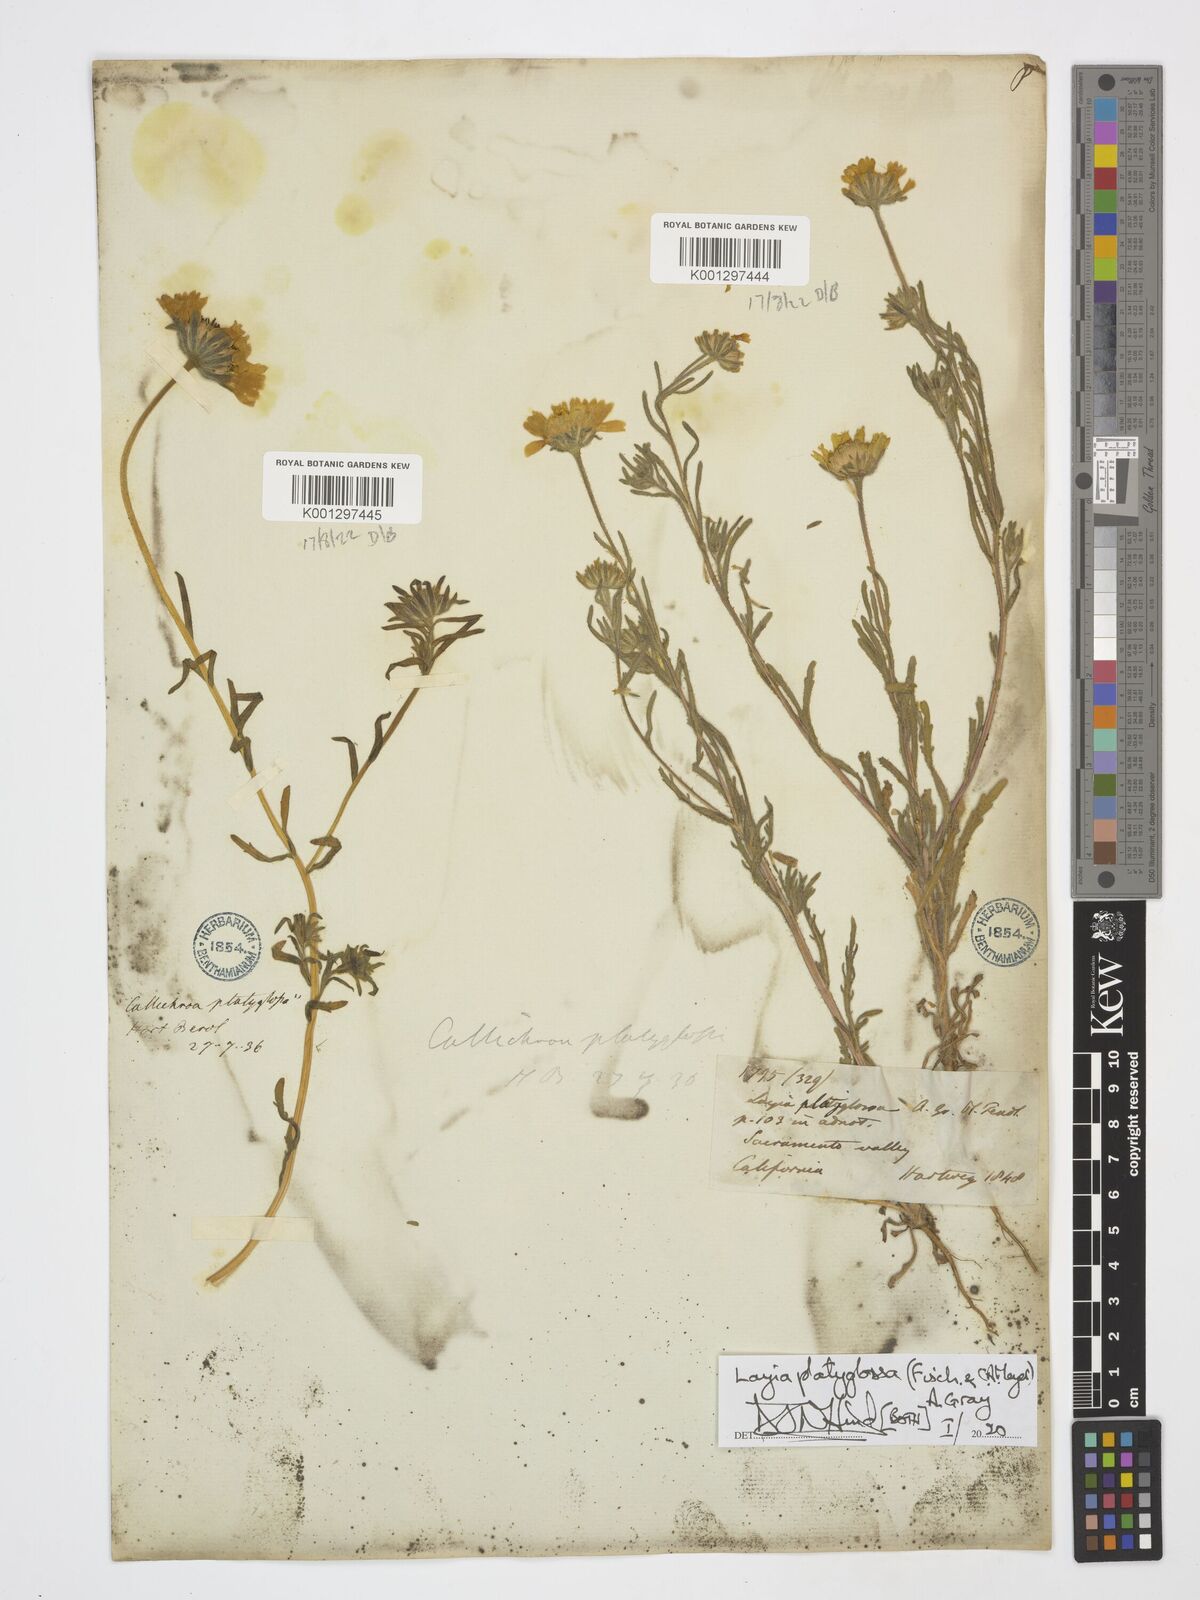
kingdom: Plantae
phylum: Tracheophyta
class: Magnoliopsida
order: Asterales
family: Asteraceae
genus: Layia
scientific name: Layia platyglossa
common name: Tidy-tips
